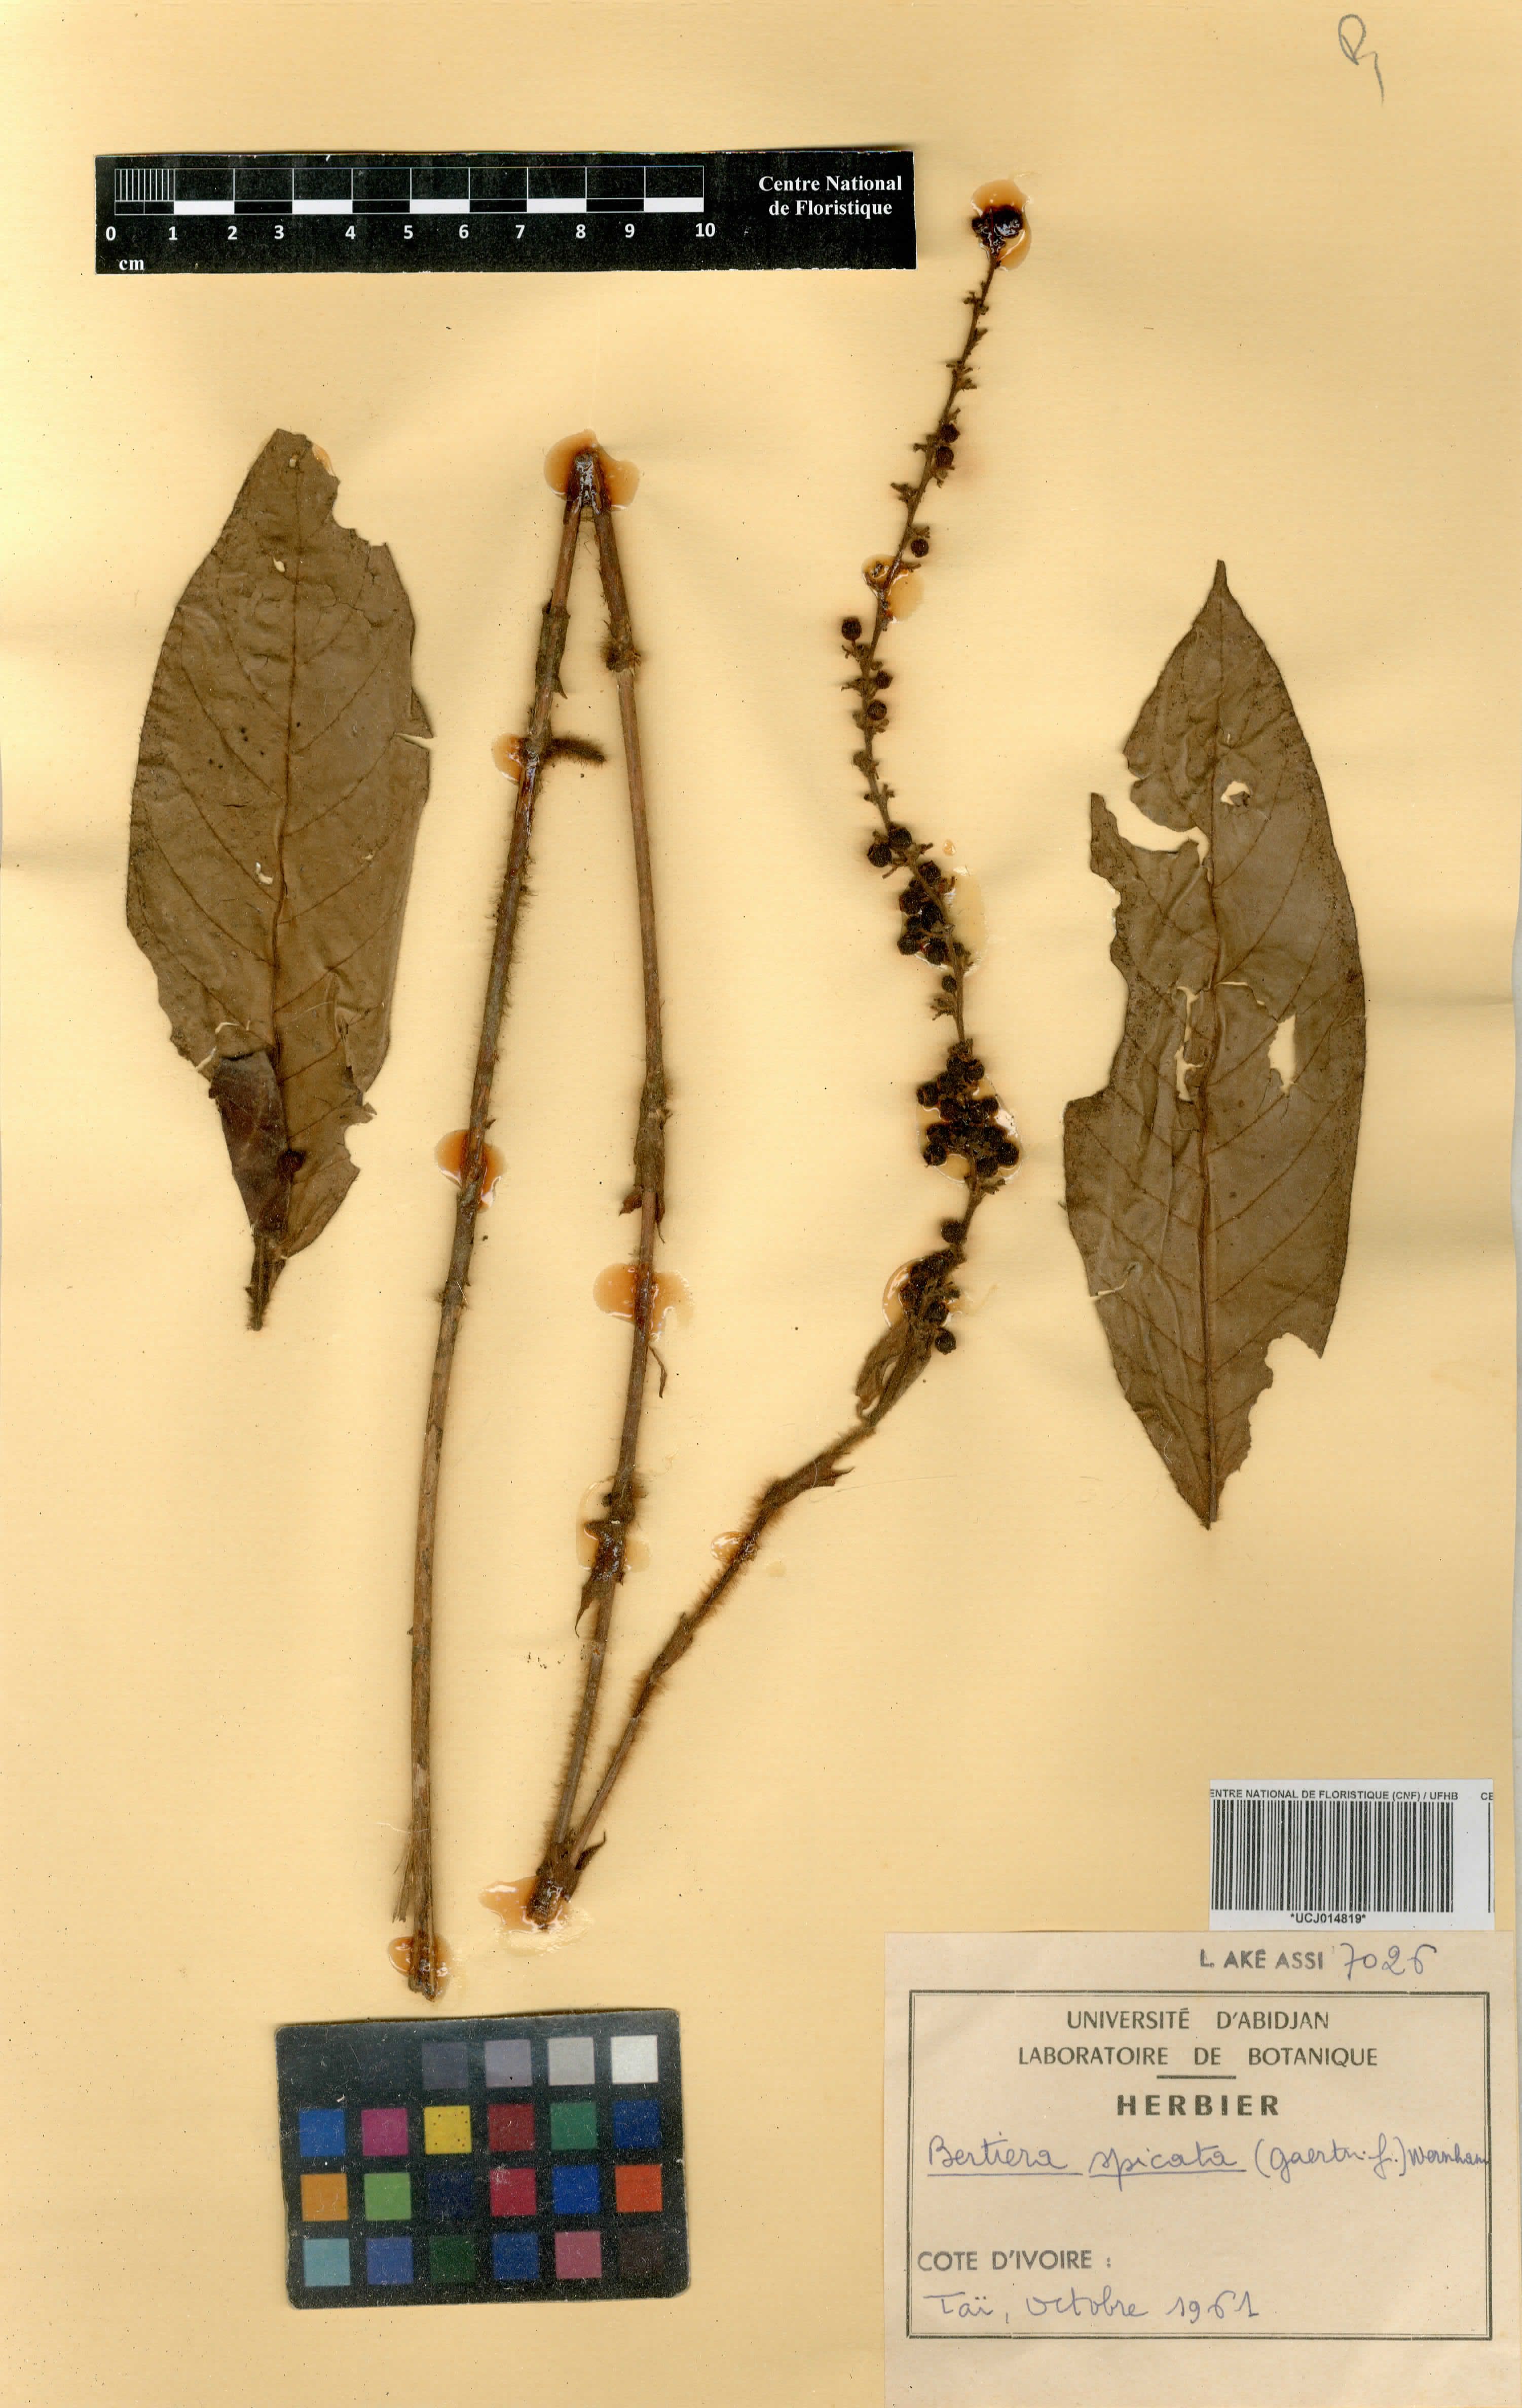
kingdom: Plantae
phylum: Tracheophyta
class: Magnoliopsida
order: Gentianales
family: Rubiaceae
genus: Bertiera
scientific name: Bertiera spicata
